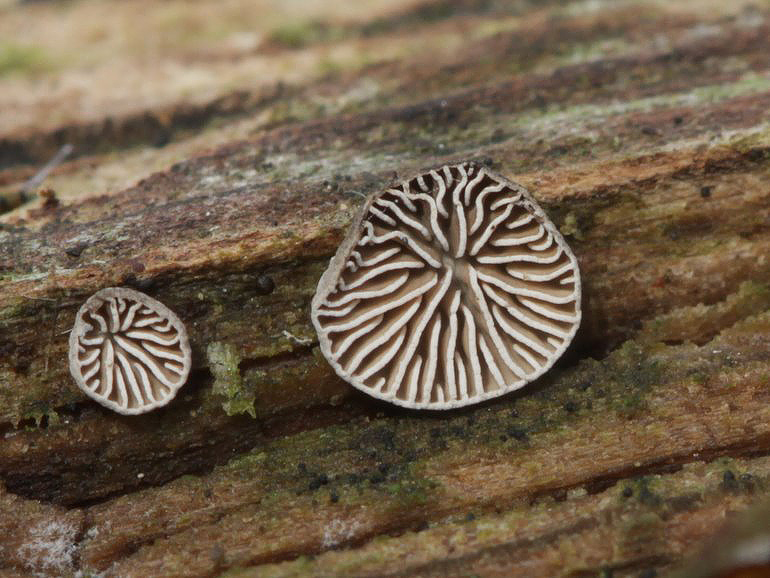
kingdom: Fungi
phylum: Basidiomycota
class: Agaricomycetes
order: Agaricales
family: Pleurotaceae
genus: Resupinatus
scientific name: Resupinatus applicatus
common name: lysfiltet barkhat
